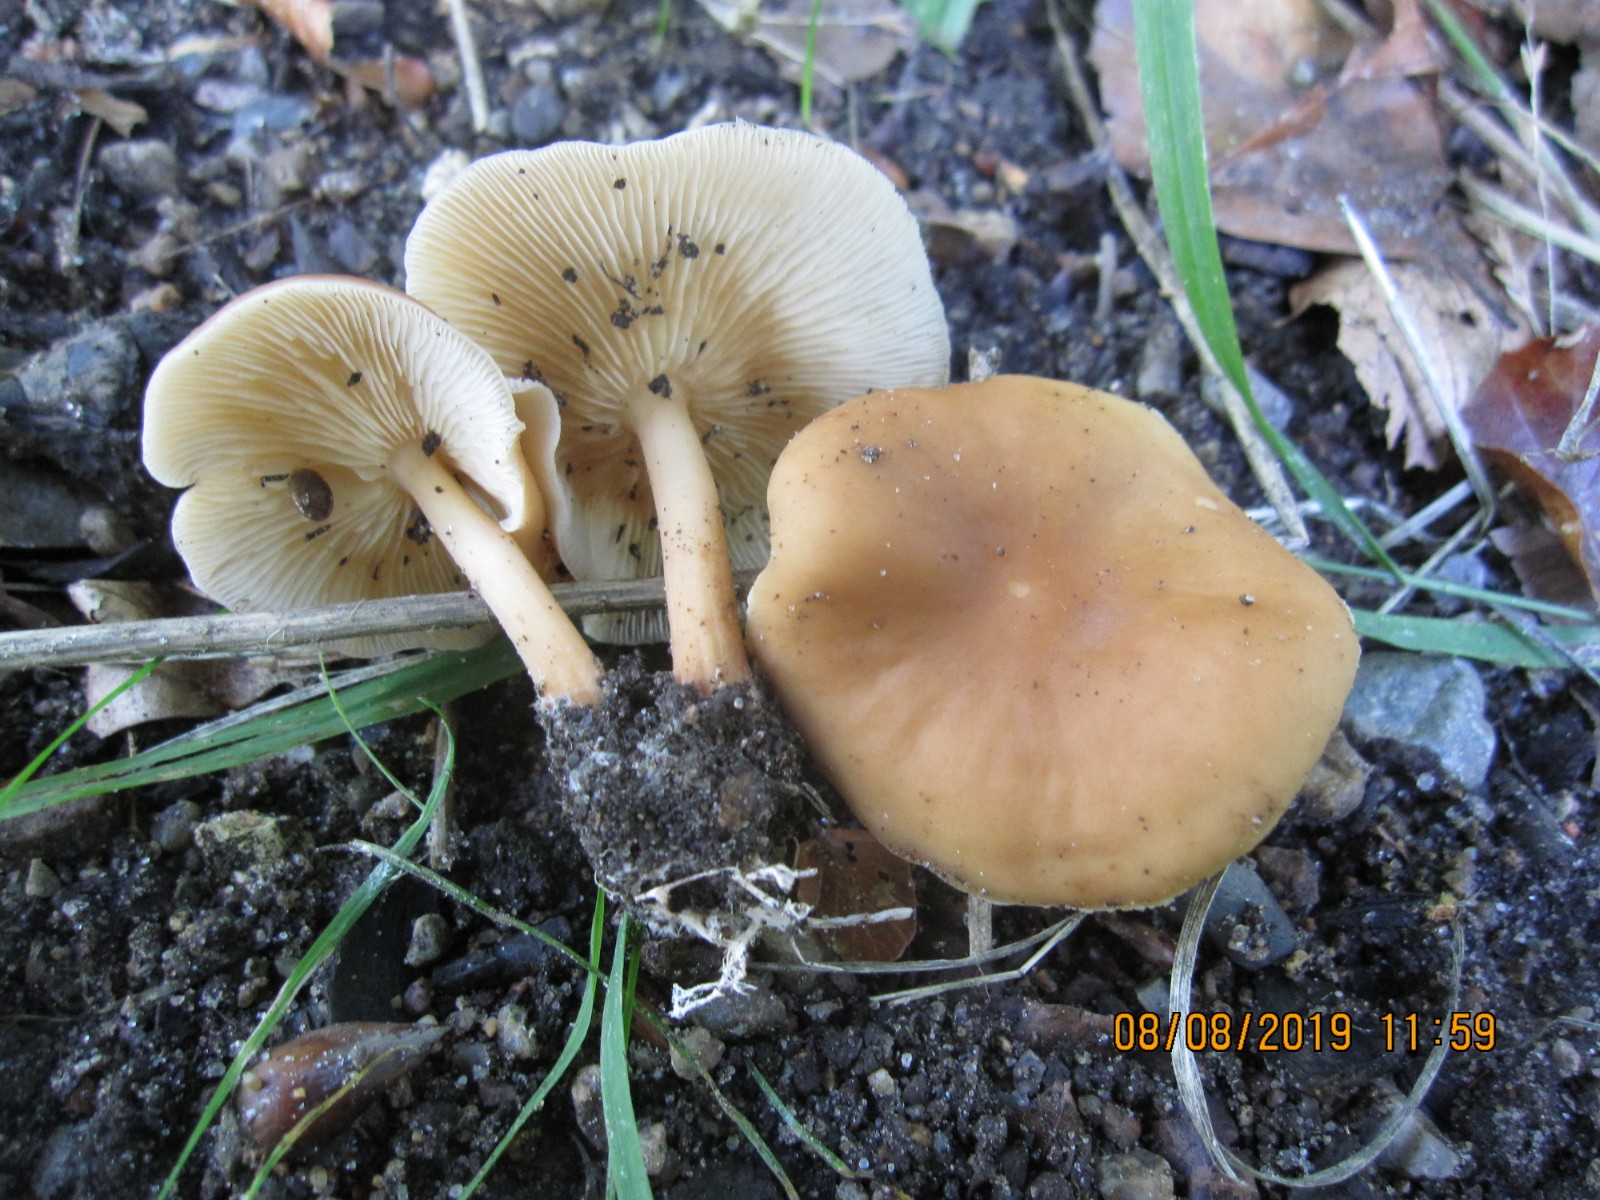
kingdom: Fungi
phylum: Basidiomycota
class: Agaricomycetes
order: Agaricales
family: Omphalotaceae
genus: Gymnopus
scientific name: Gymnopus dryophilus
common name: løv-fladhat
